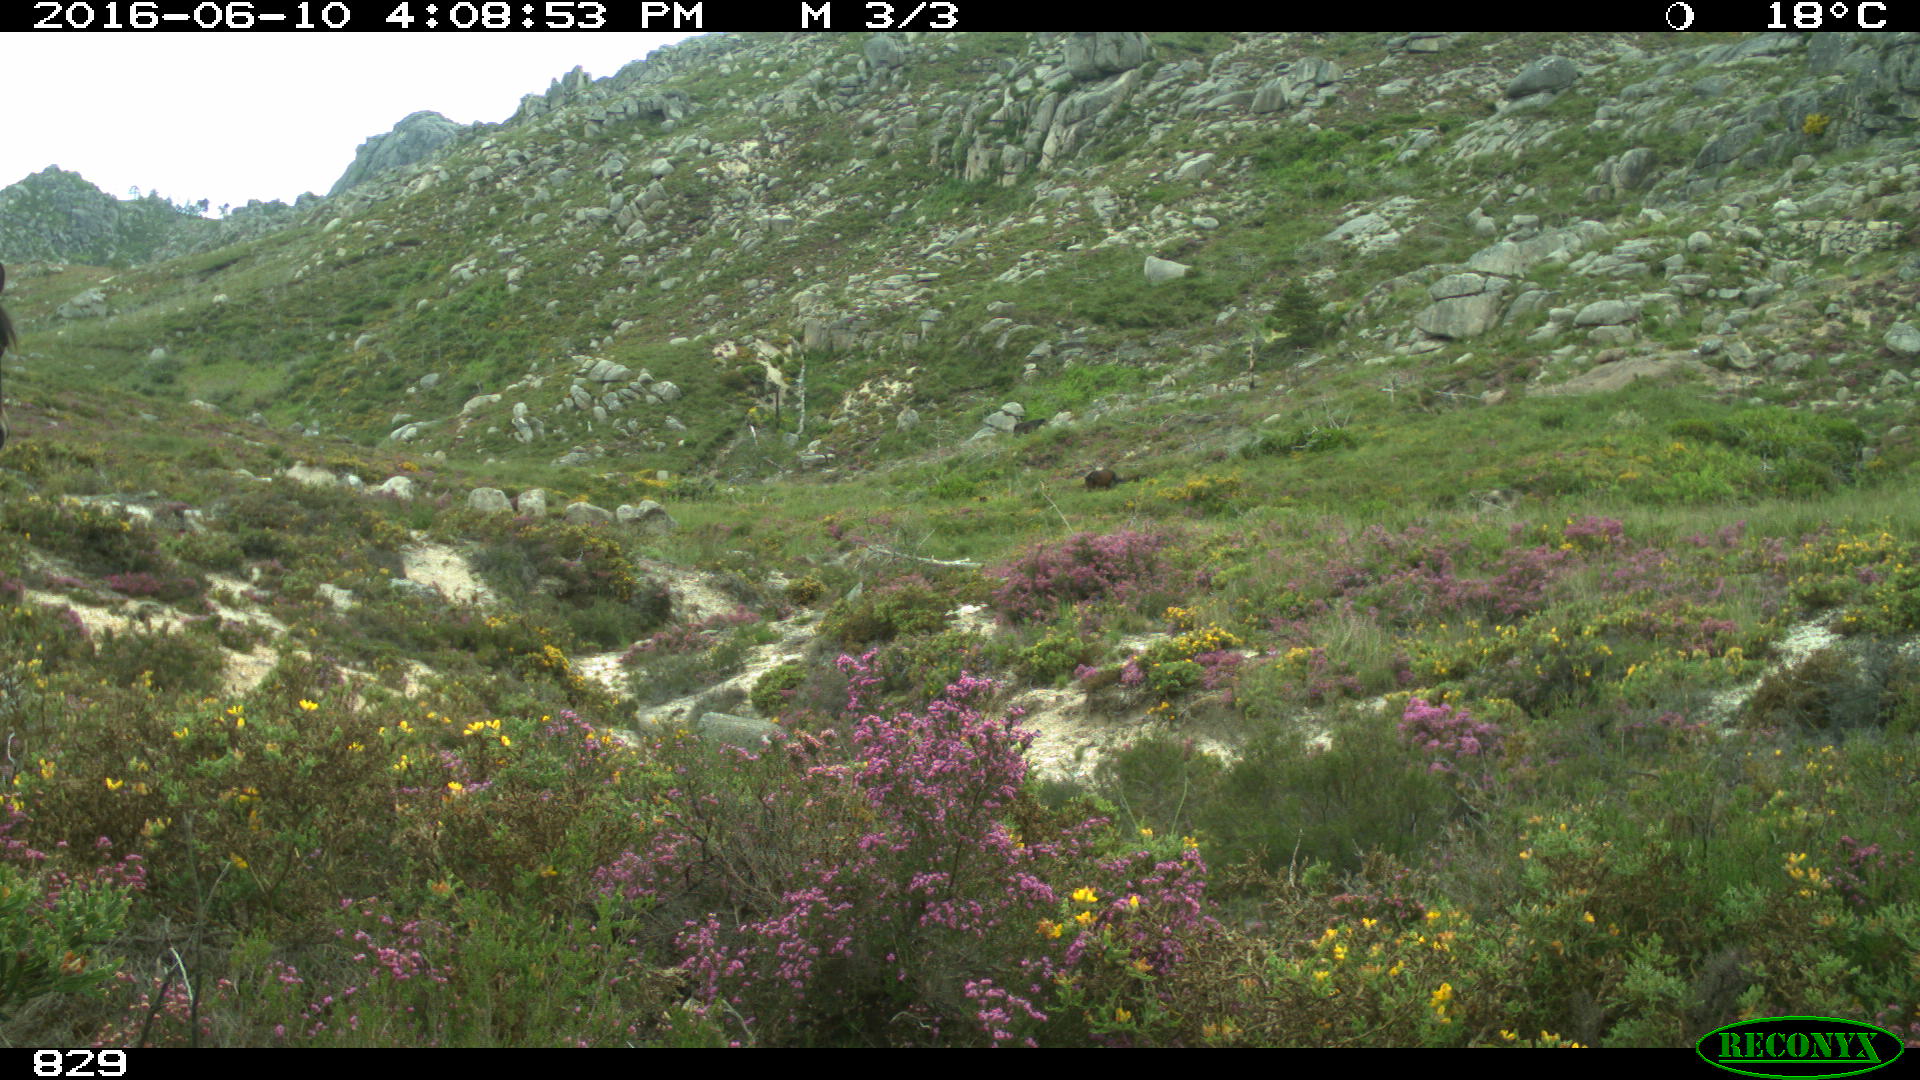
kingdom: Animalia
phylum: Chordata
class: Mammalia
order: Perissodactyla
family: Equidae
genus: Equus
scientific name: Equus caballus
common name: Horse
